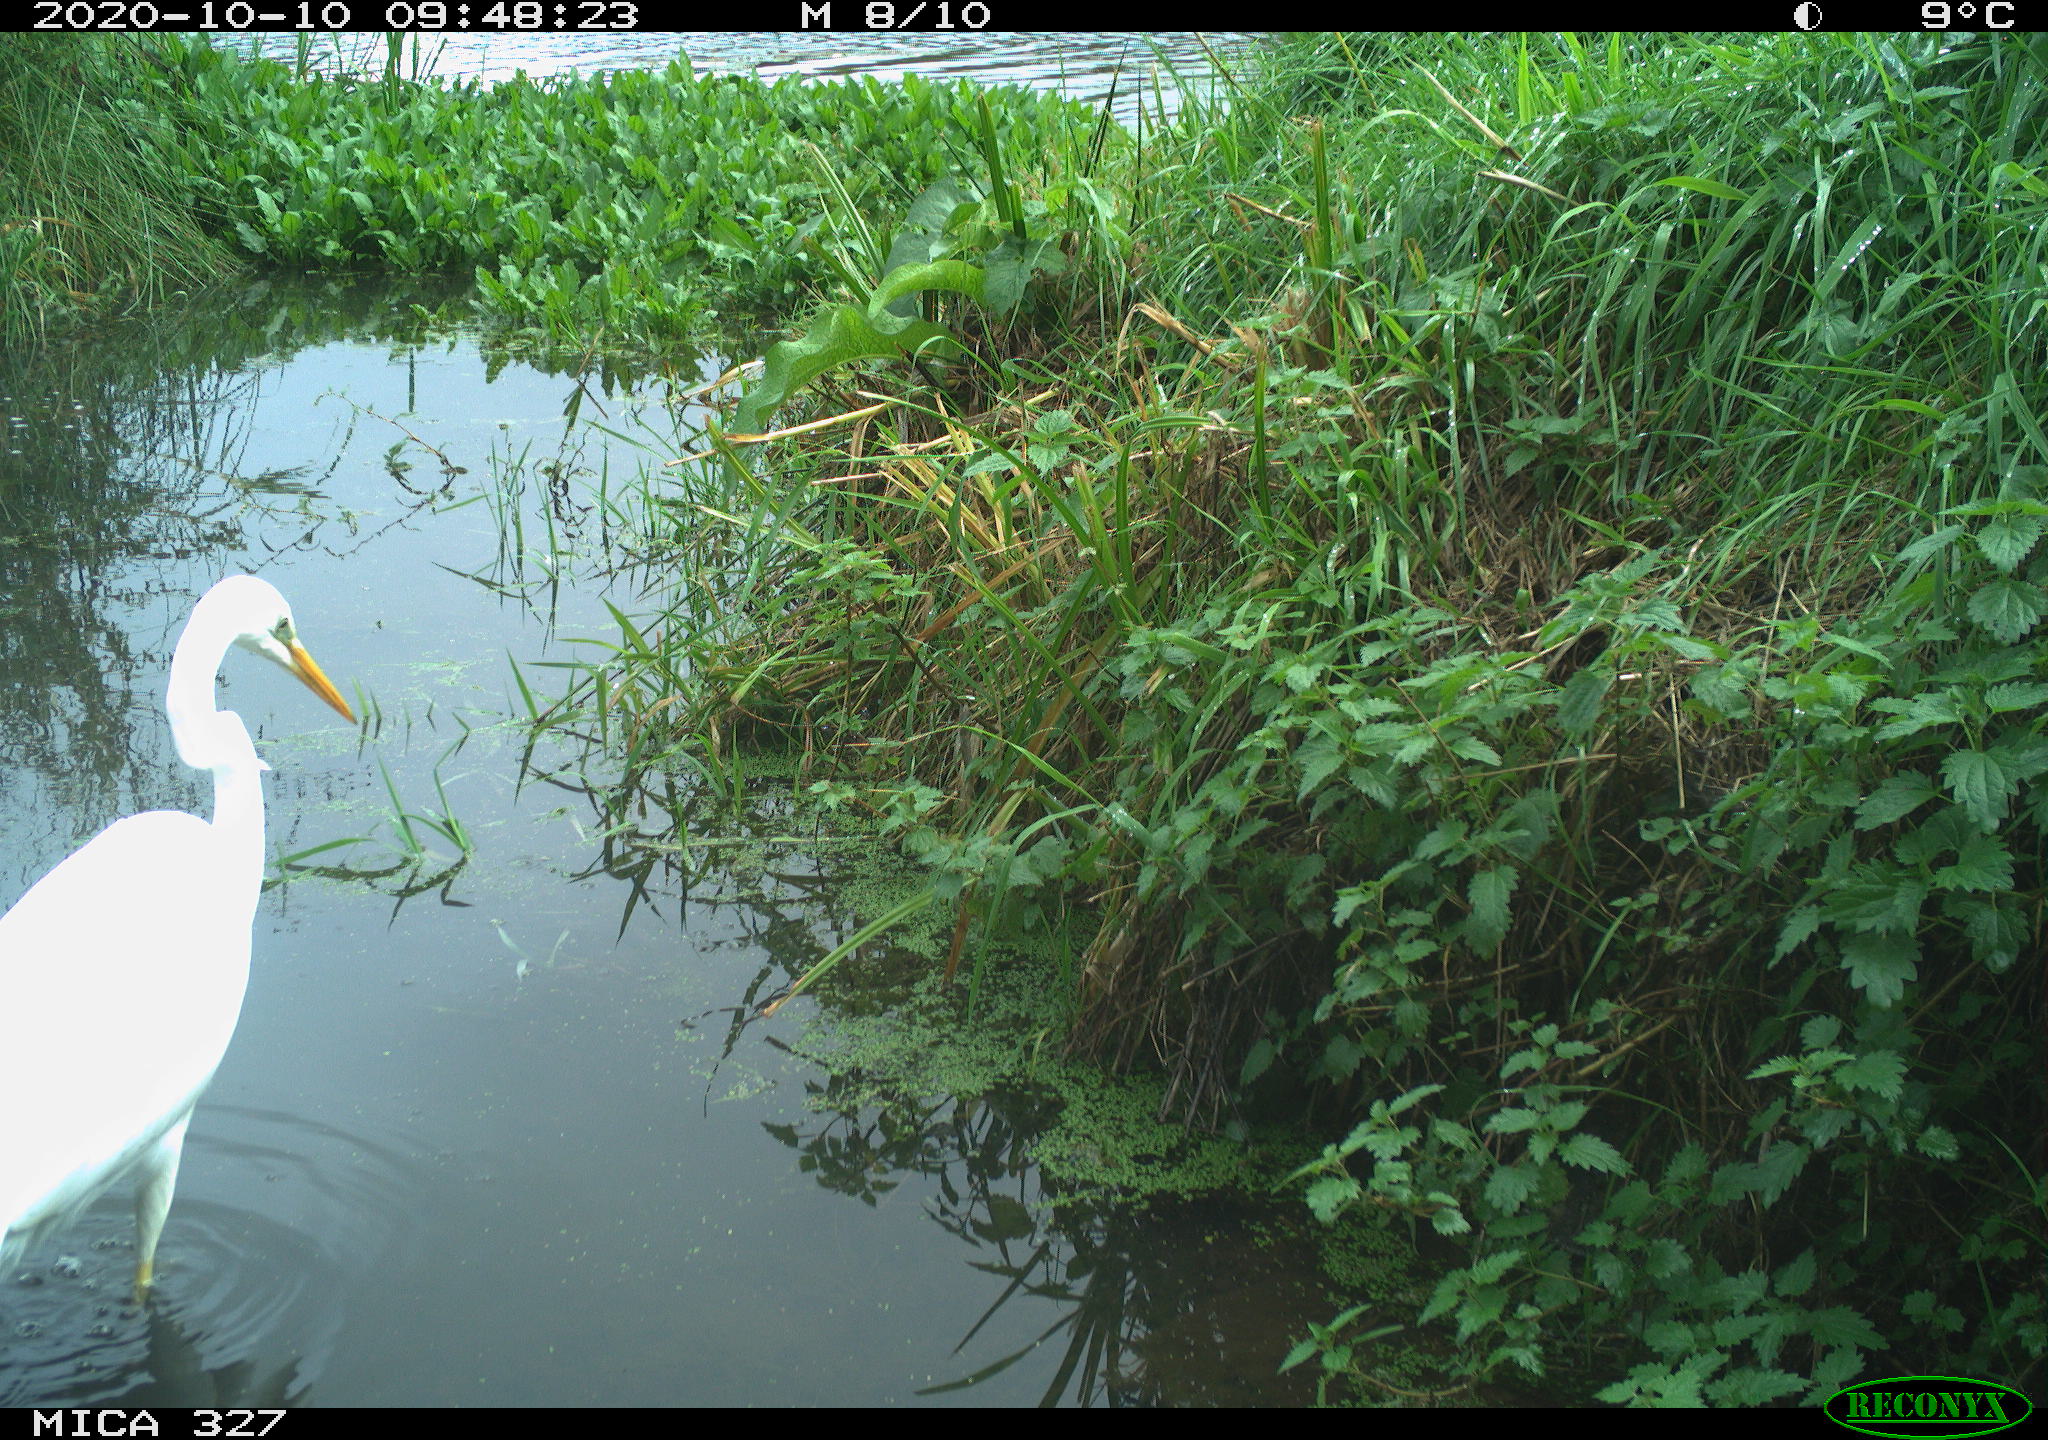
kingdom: Animalia
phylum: Chordata
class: Aves
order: Pelecaniformes
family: Ardeidae
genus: Ardea
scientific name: Ardea alba
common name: Great egret
